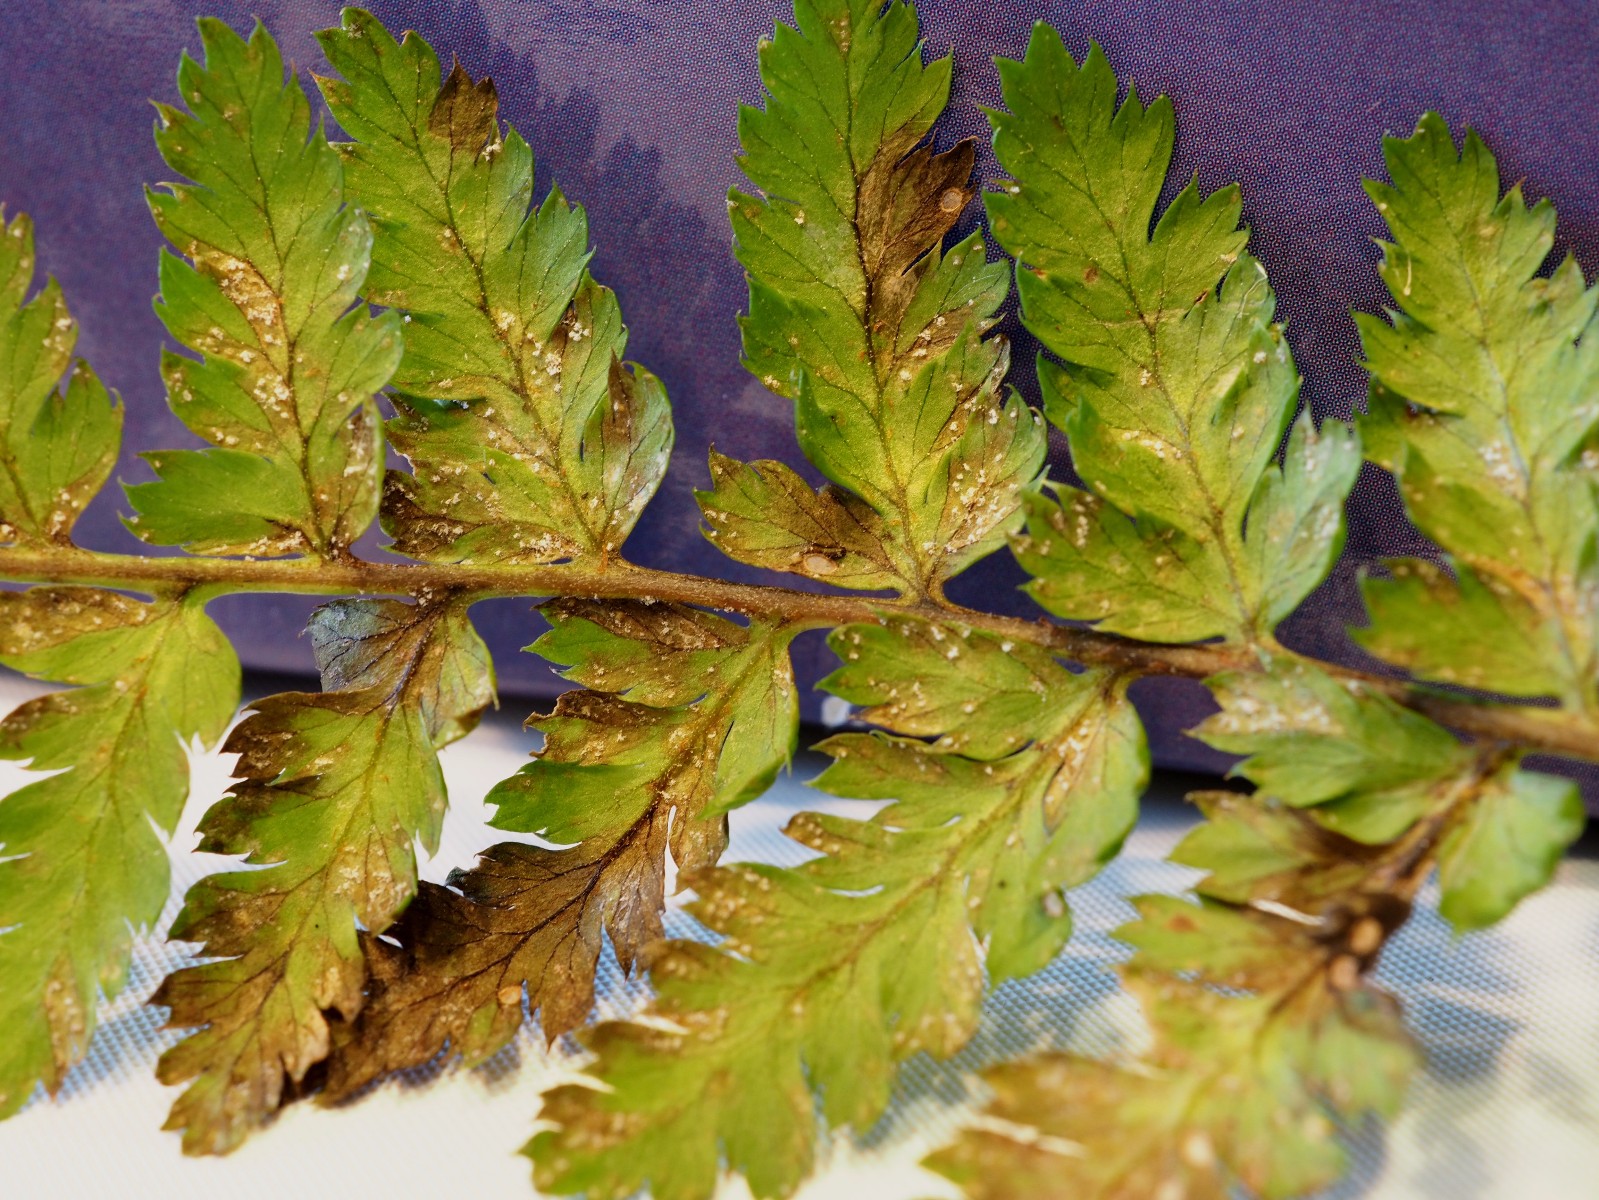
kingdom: Fungi
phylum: Basidiomycota
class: Pucciniomycetes
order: Pucciniales
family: Milesinaceae
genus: Milesina
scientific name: Milesina kriegeriana
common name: mangeløv-bregnerust
